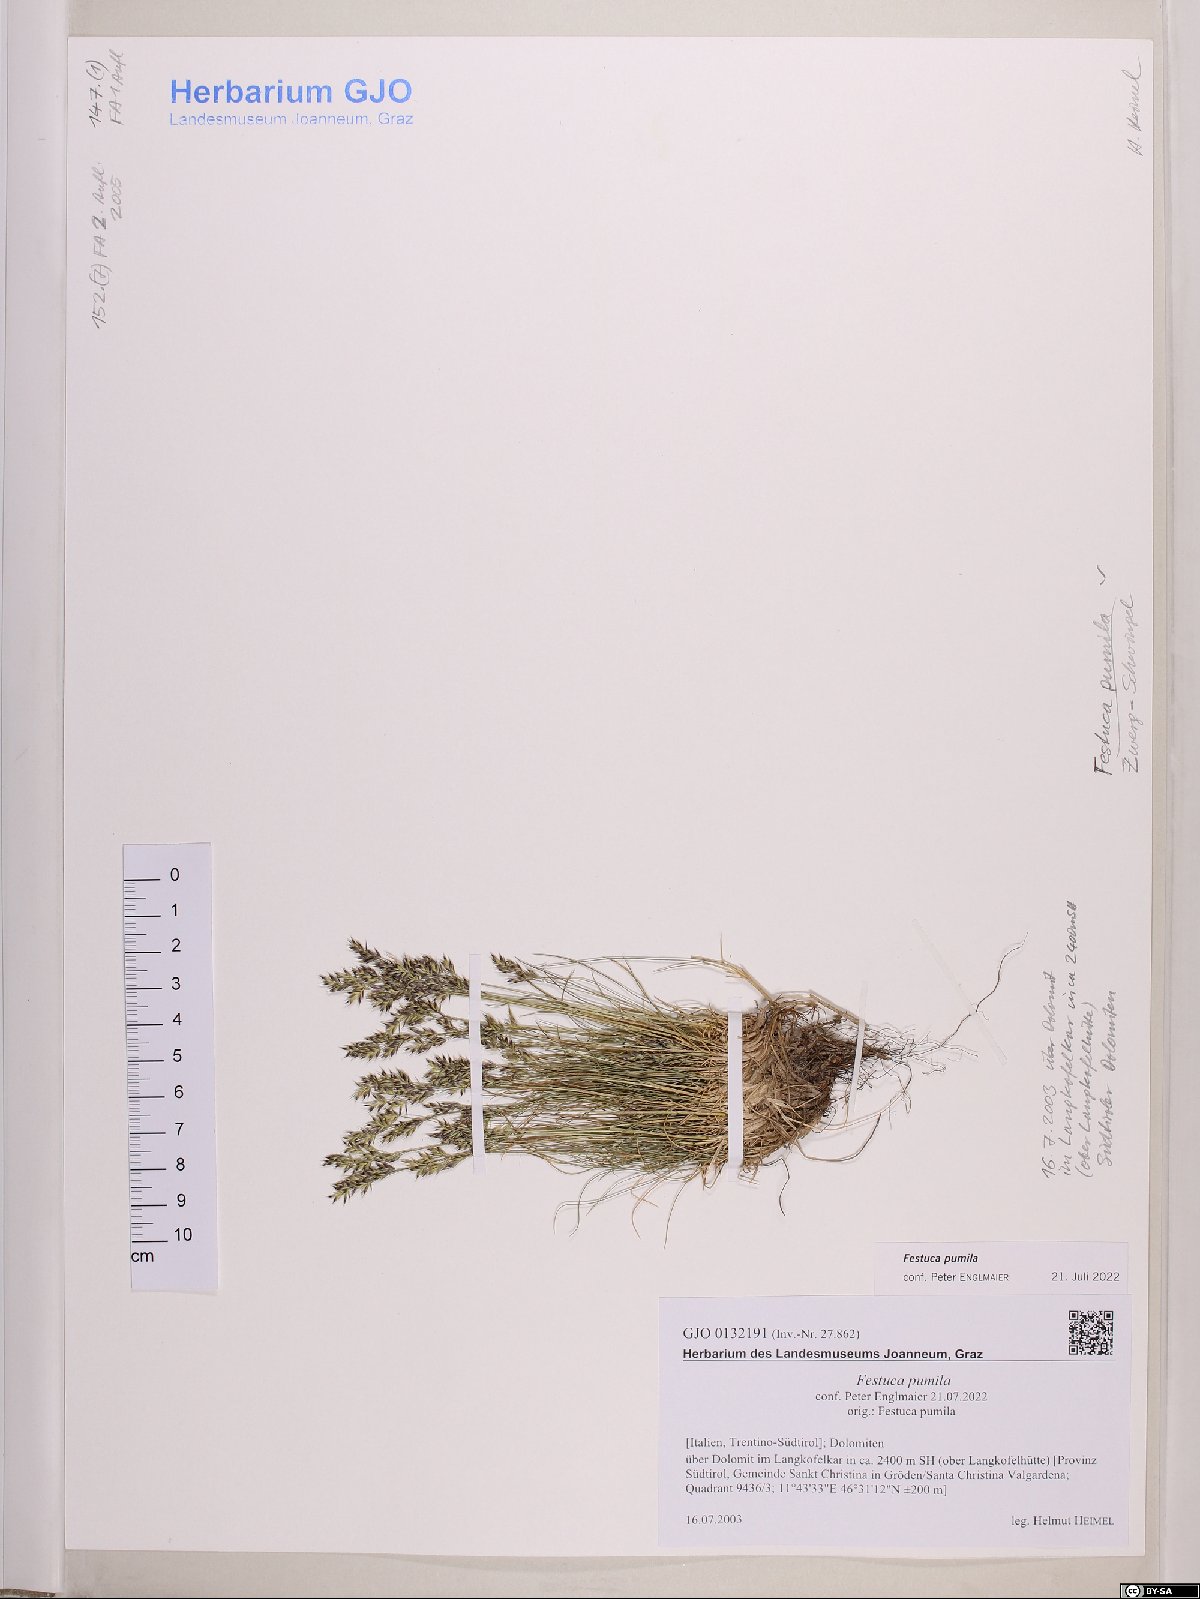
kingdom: Plantae
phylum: Tracheophyta
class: Liliopsida
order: Poales
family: Poaceae
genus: Festuca
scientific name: Festuca quadriflora
